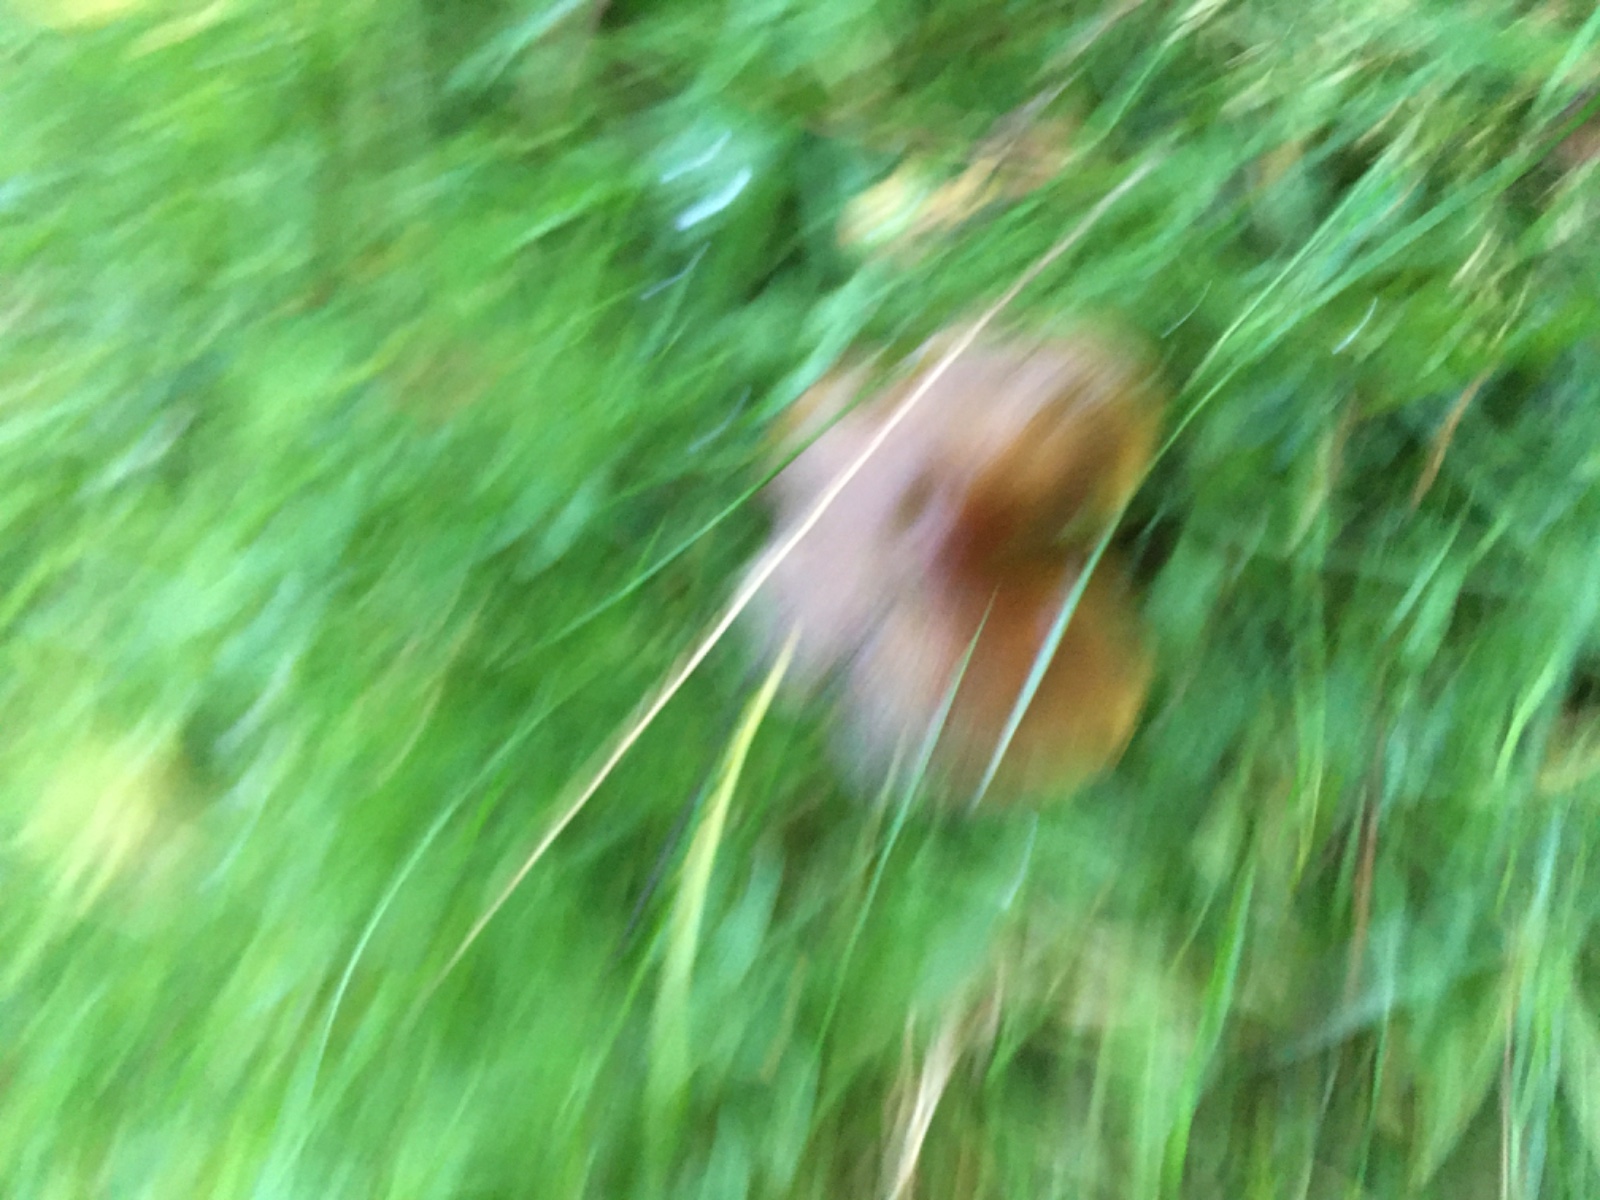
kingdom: Fungi
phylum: Basidiomycota
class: Agaricomycetes
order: Agaricales
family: Hygrophoraceae
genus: Hygrocybe
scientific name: Hygrocybe conica
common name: kegle-vokshat
